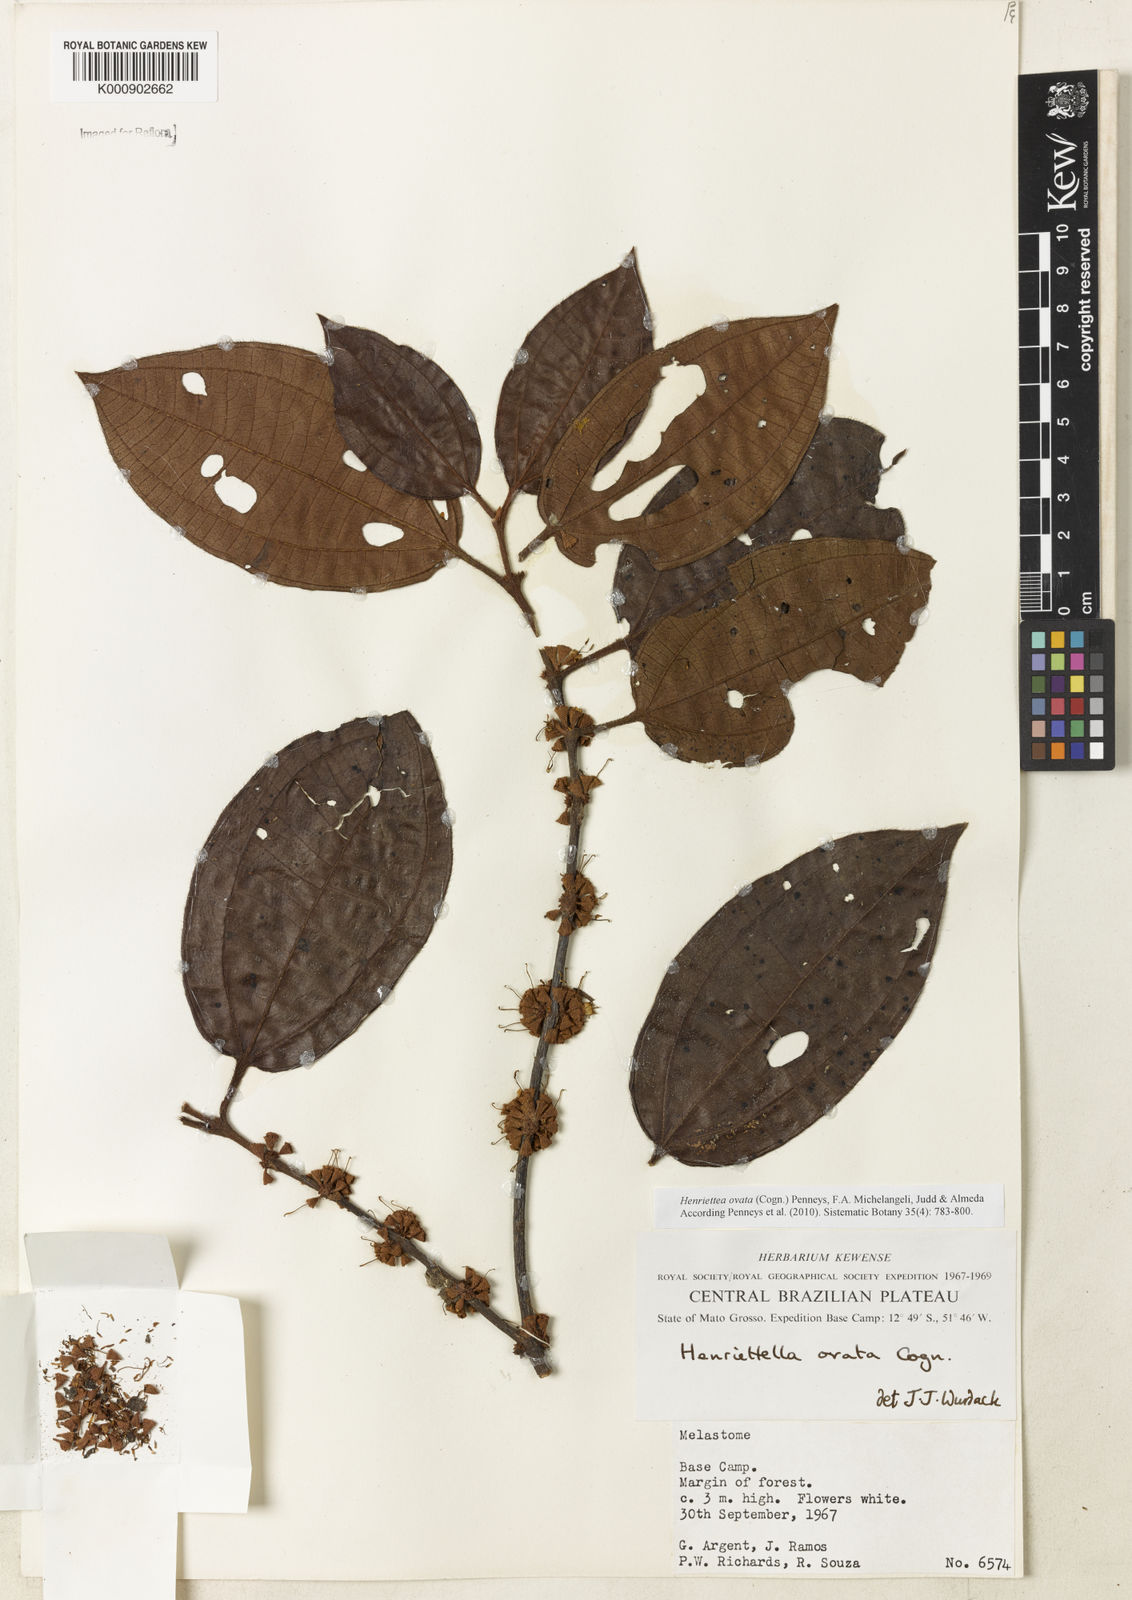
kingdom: Plantae
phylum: Tracheophyta
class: Magnoliopsida
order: Myrtales
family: Melastomataceae
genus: Henriettea
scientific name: Henriettea ovata
